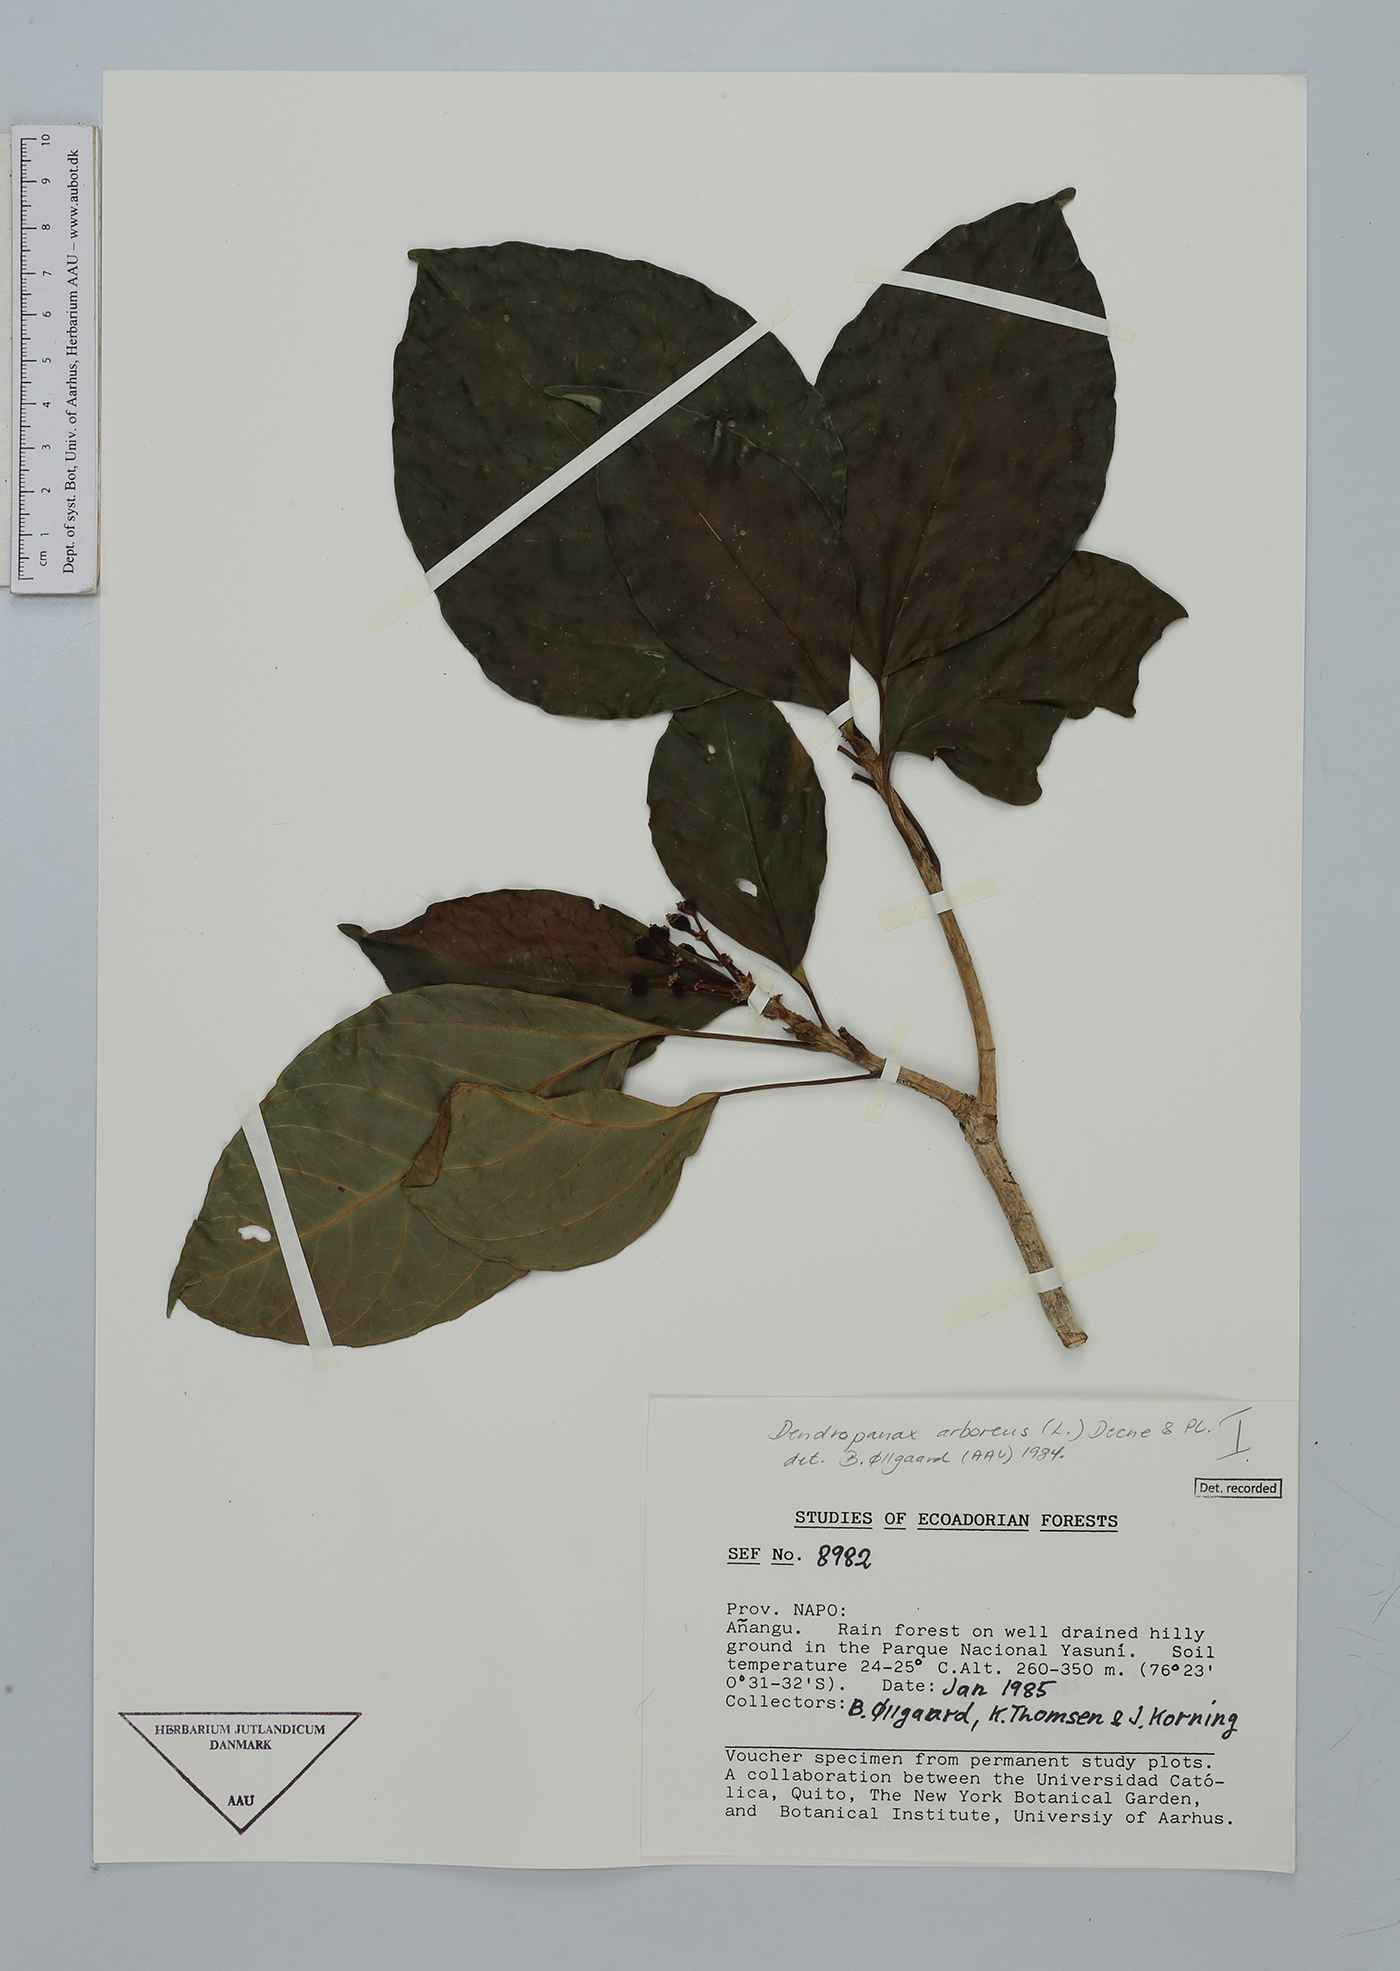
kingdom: Plantae
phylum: Tracheophyta
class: Magnoliopsida
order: Apiales
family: Araliaceae
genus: Dendropanax
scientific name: Dendropanax arboreus
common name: Potato-wood
